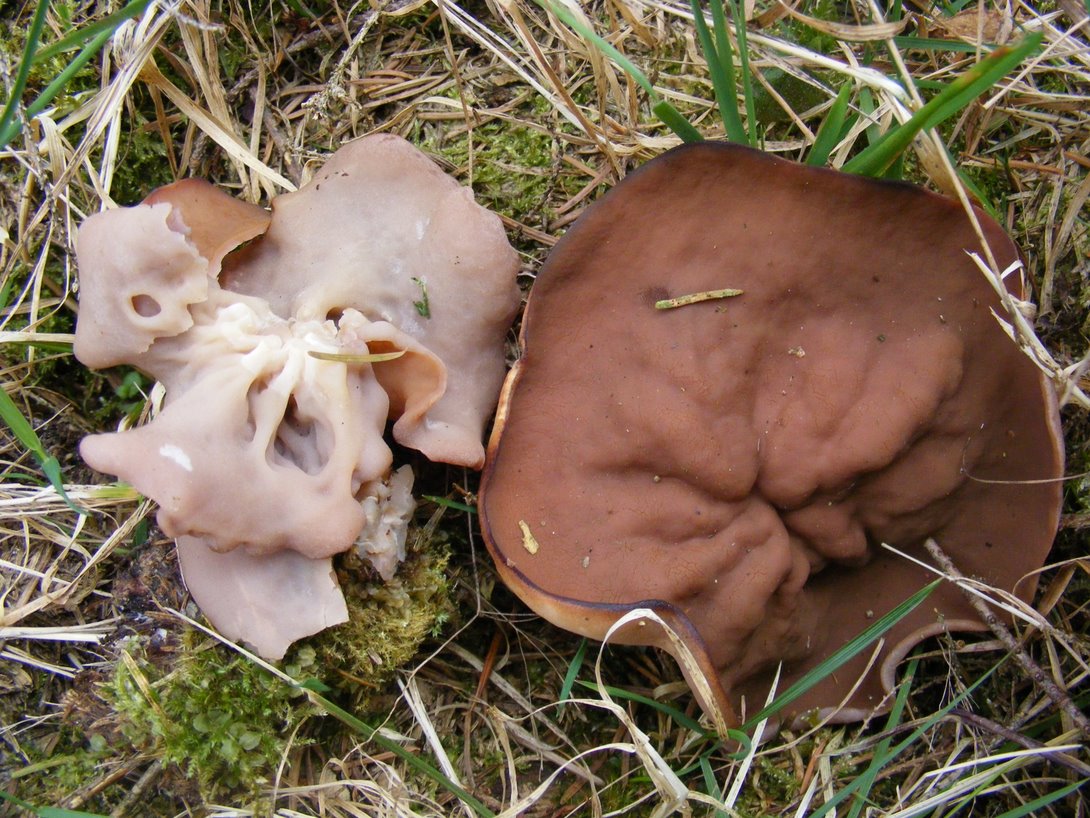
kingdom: Fungi
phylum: Ascomycota
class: Pezizomycetes
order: Pezizales
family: Discinaceae
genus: Discina
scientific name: Discina ancilis
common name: udbredt stenmorkel
